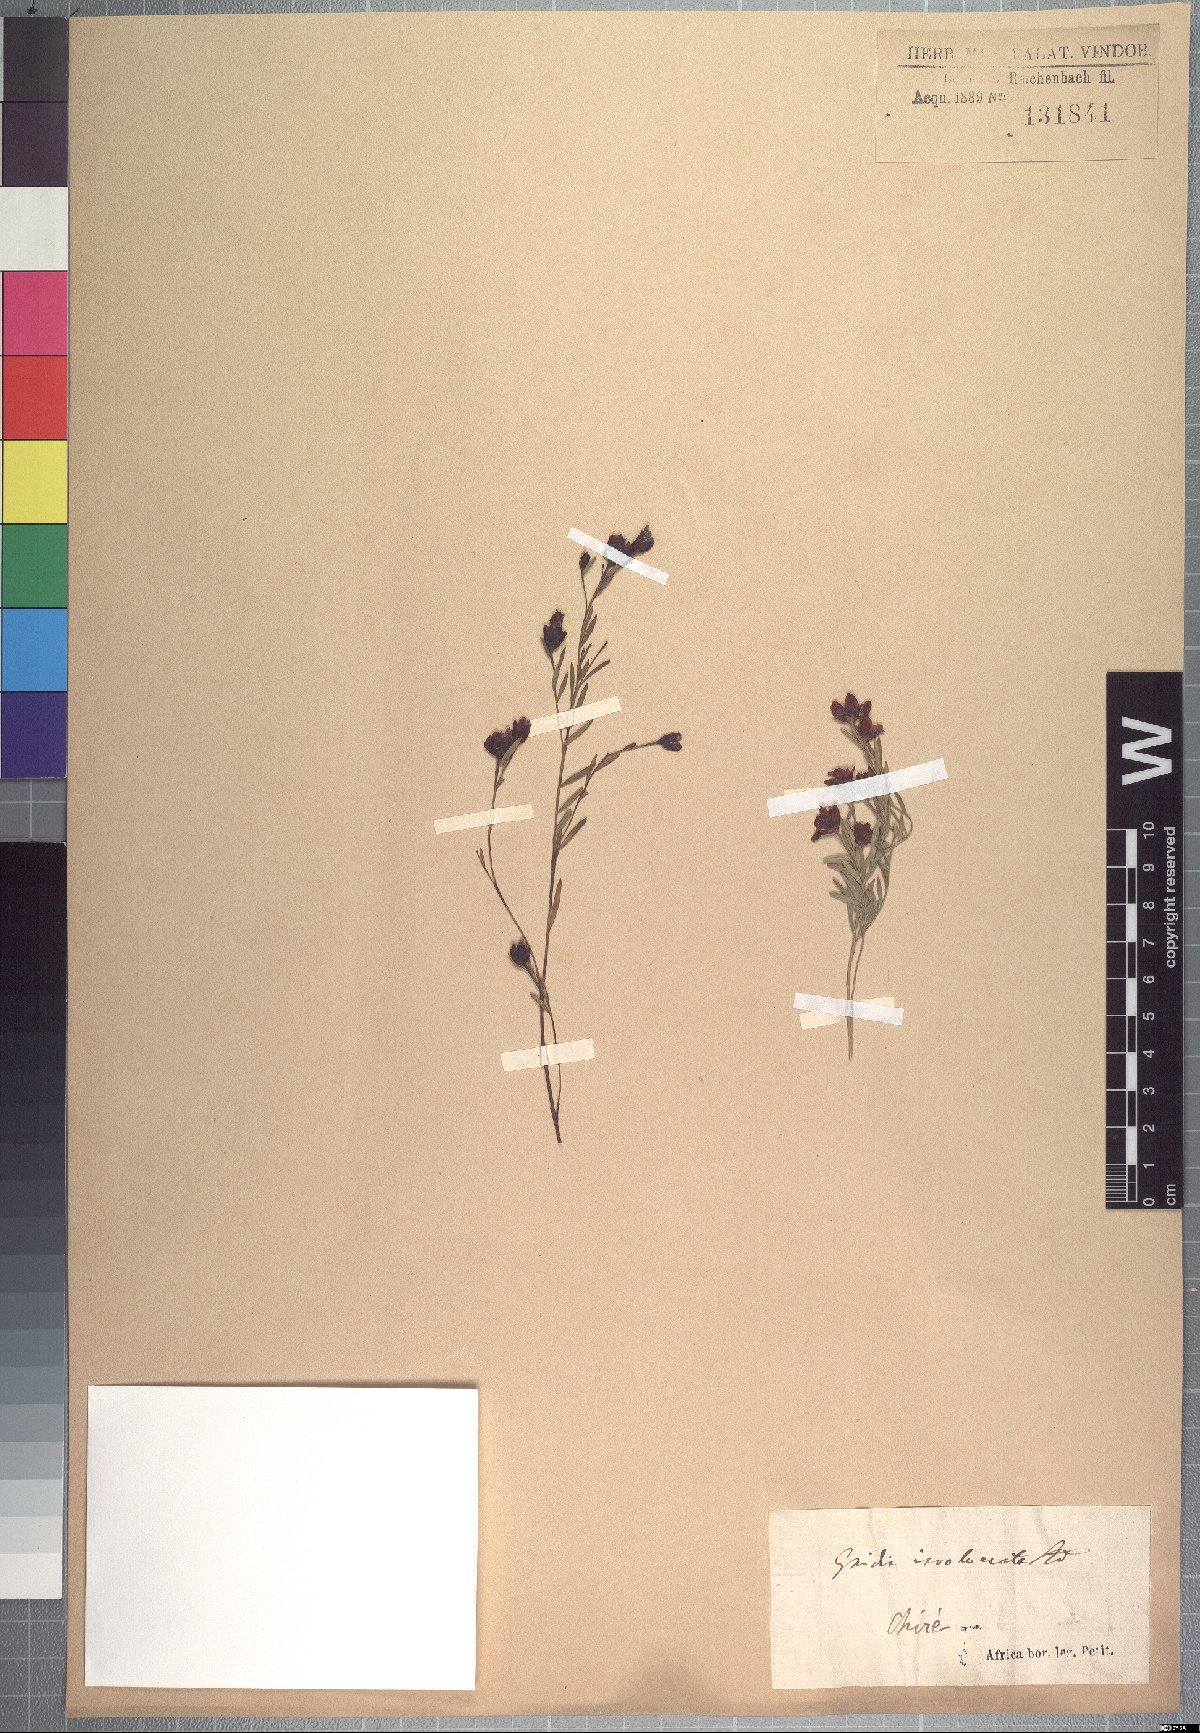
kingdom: Plantae
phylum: Tracheophyta
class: Magnoliopsida
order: Malvales
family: Thymelaeaceae
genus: Gnidia
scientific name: Gnidia involucrata
